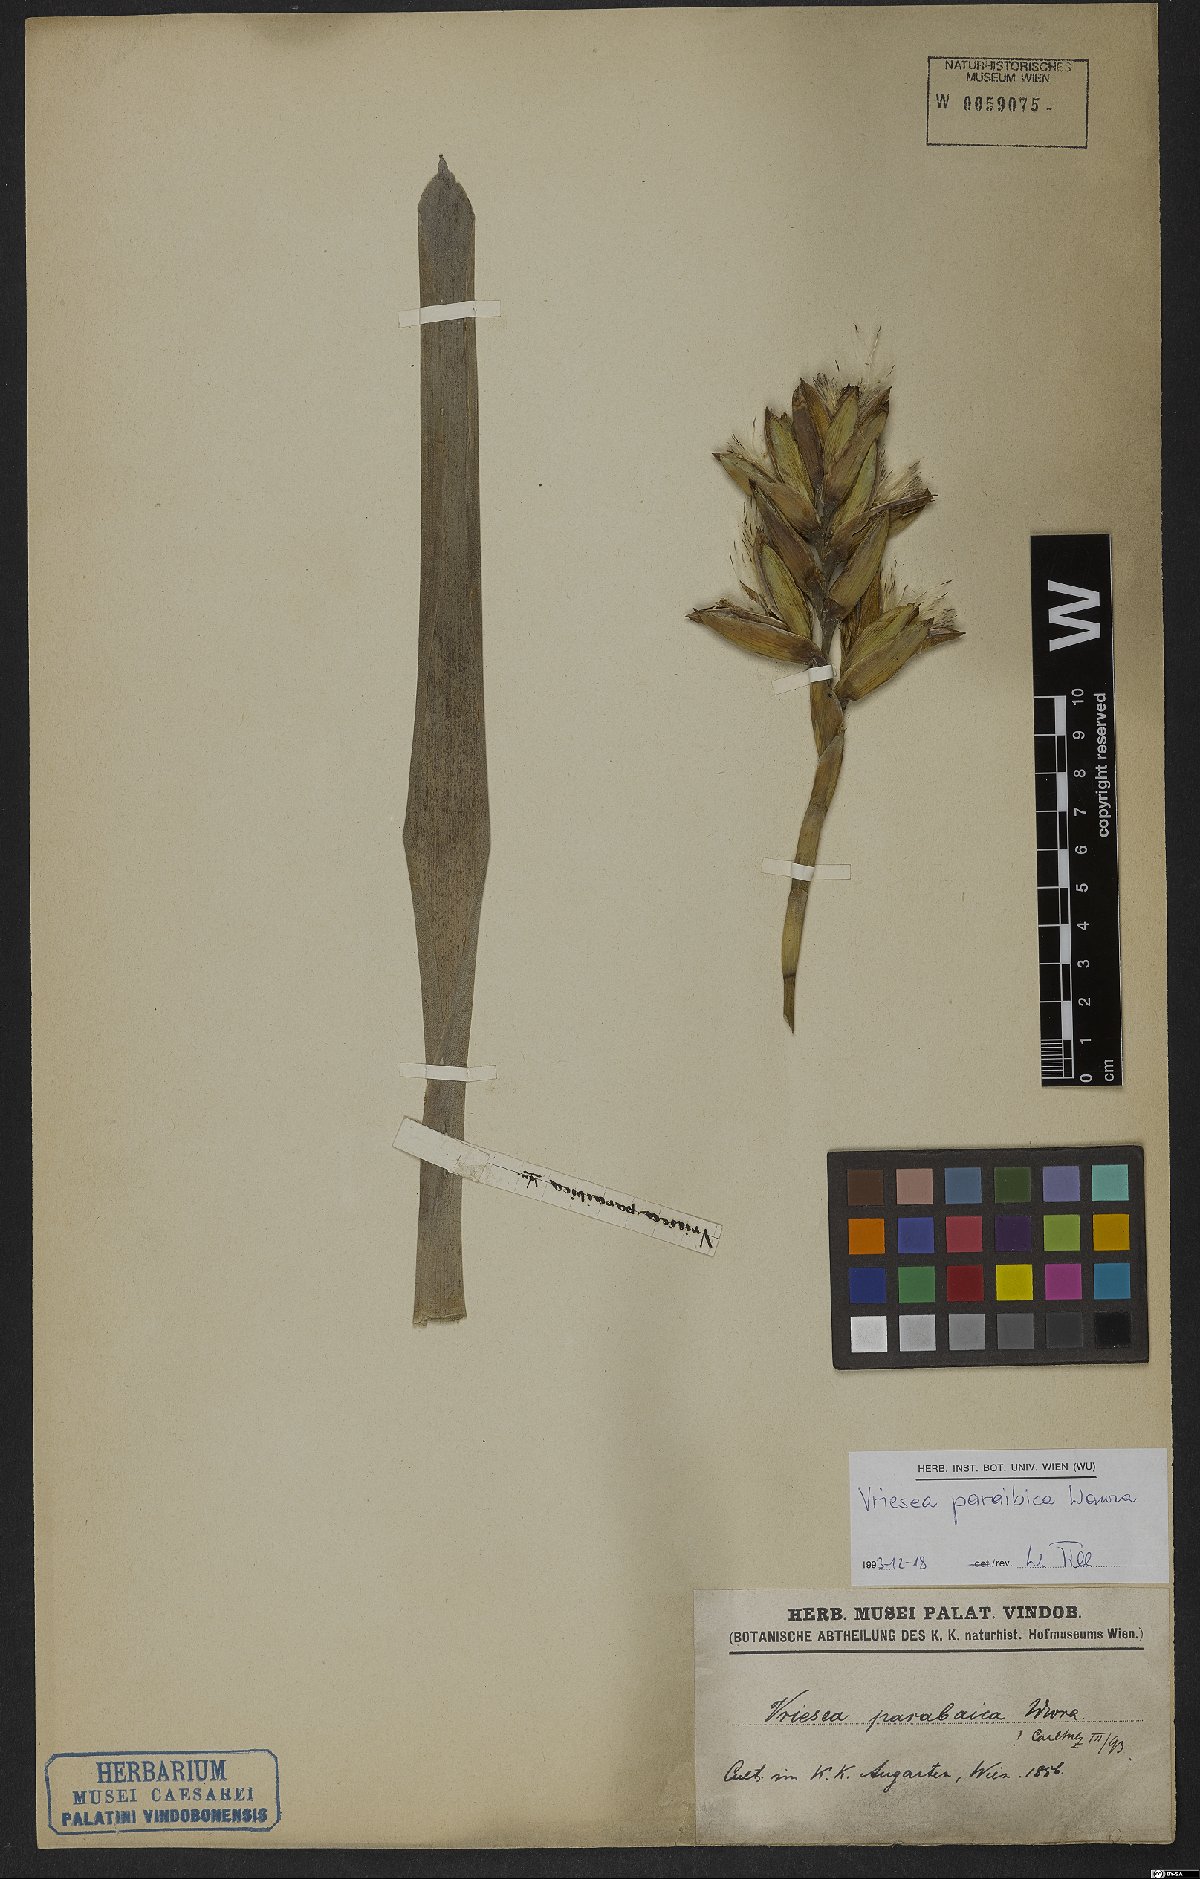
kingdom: Plantae
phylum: Tracheophyta
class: Liliopsida
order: Poales
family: Bromeliaceae
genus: Vriesea
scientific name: Vriesea paraibica
